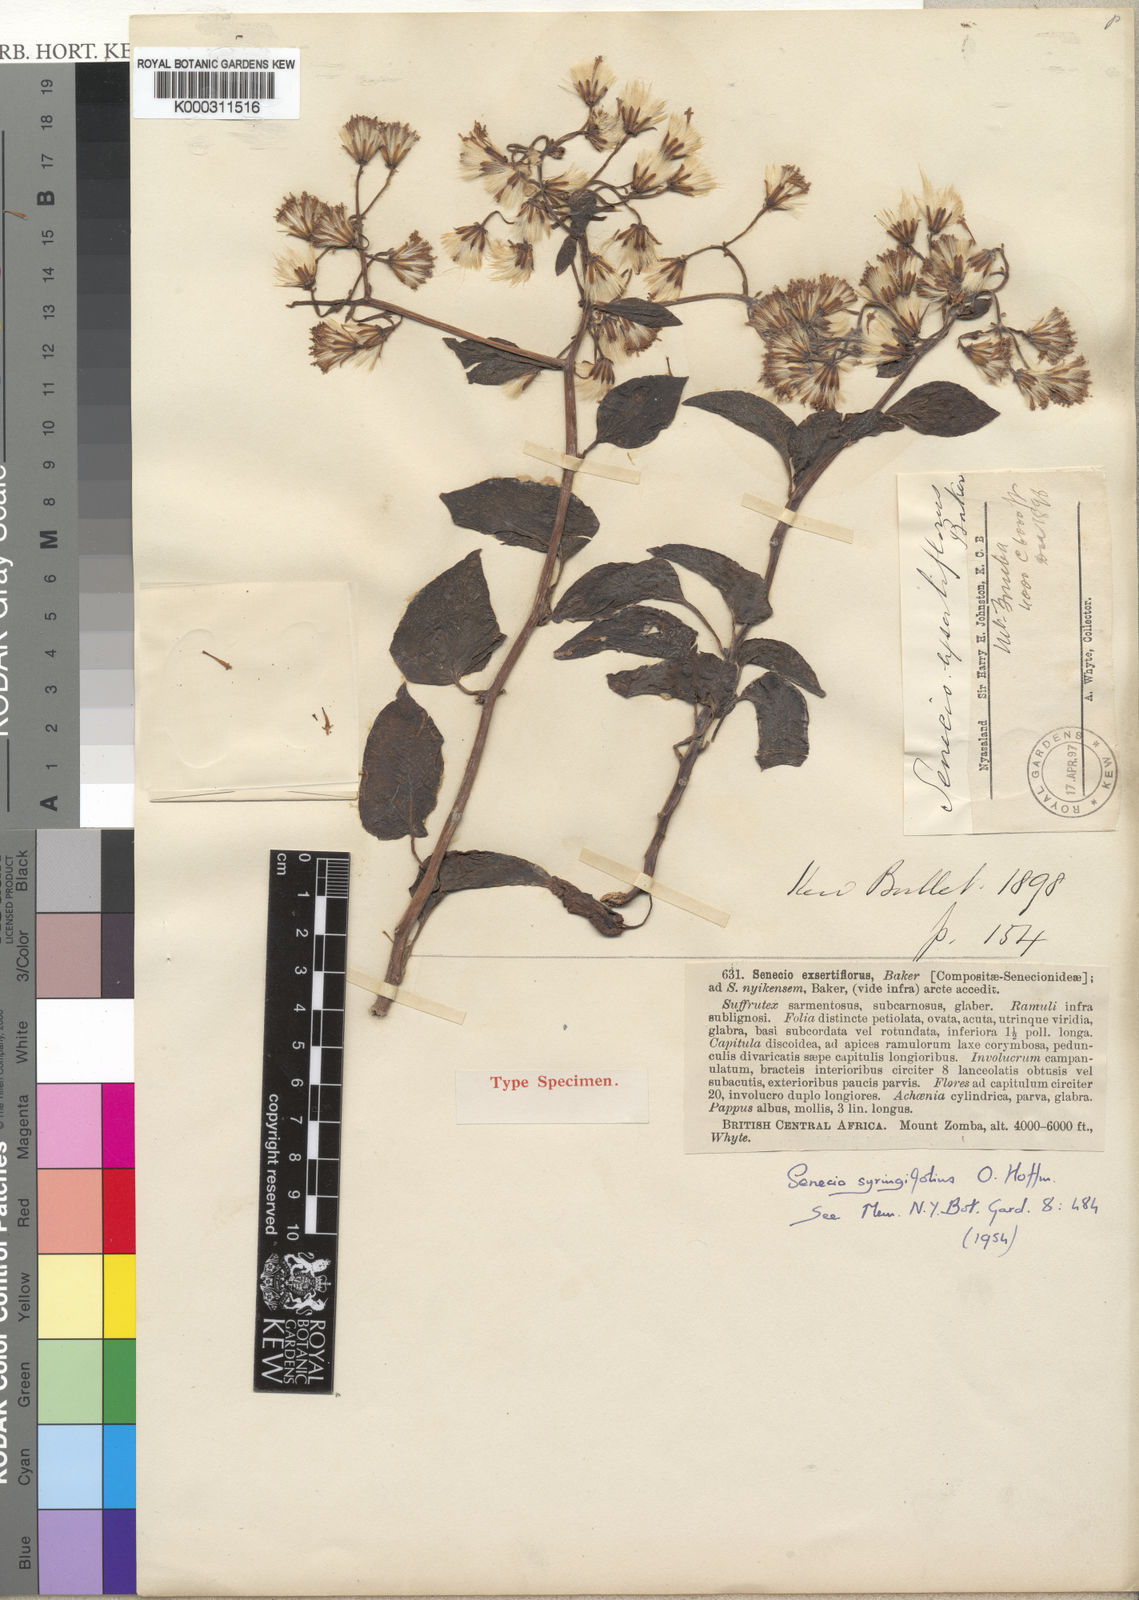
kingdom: Plantae
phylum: Tracheophyta
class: Magnoliopsida
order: Asterales
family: Asteraceae
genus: Senecio
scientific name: Senecio syringifolius
